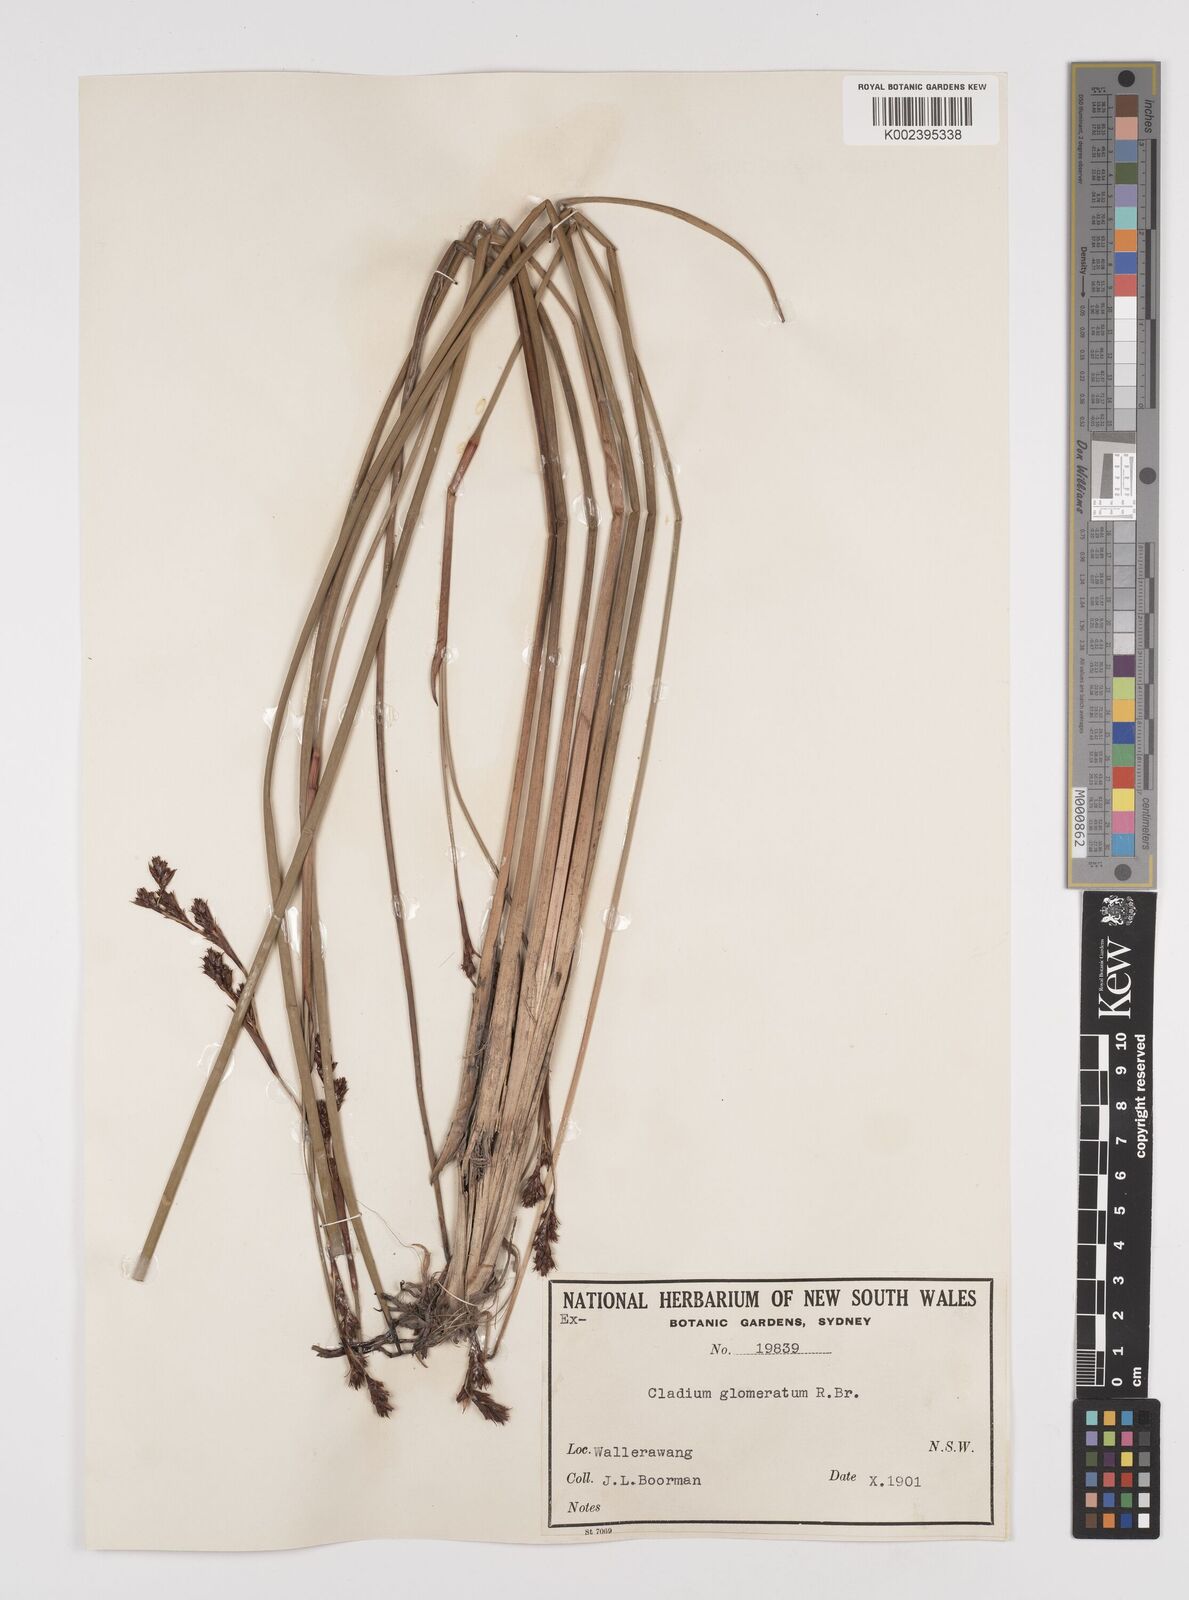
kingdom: Plantae
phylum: Tracheophyta
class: Liliopsida
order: Poales
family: Cyperaceae
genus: Machaerina
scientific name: Machaerina rubiginosa
